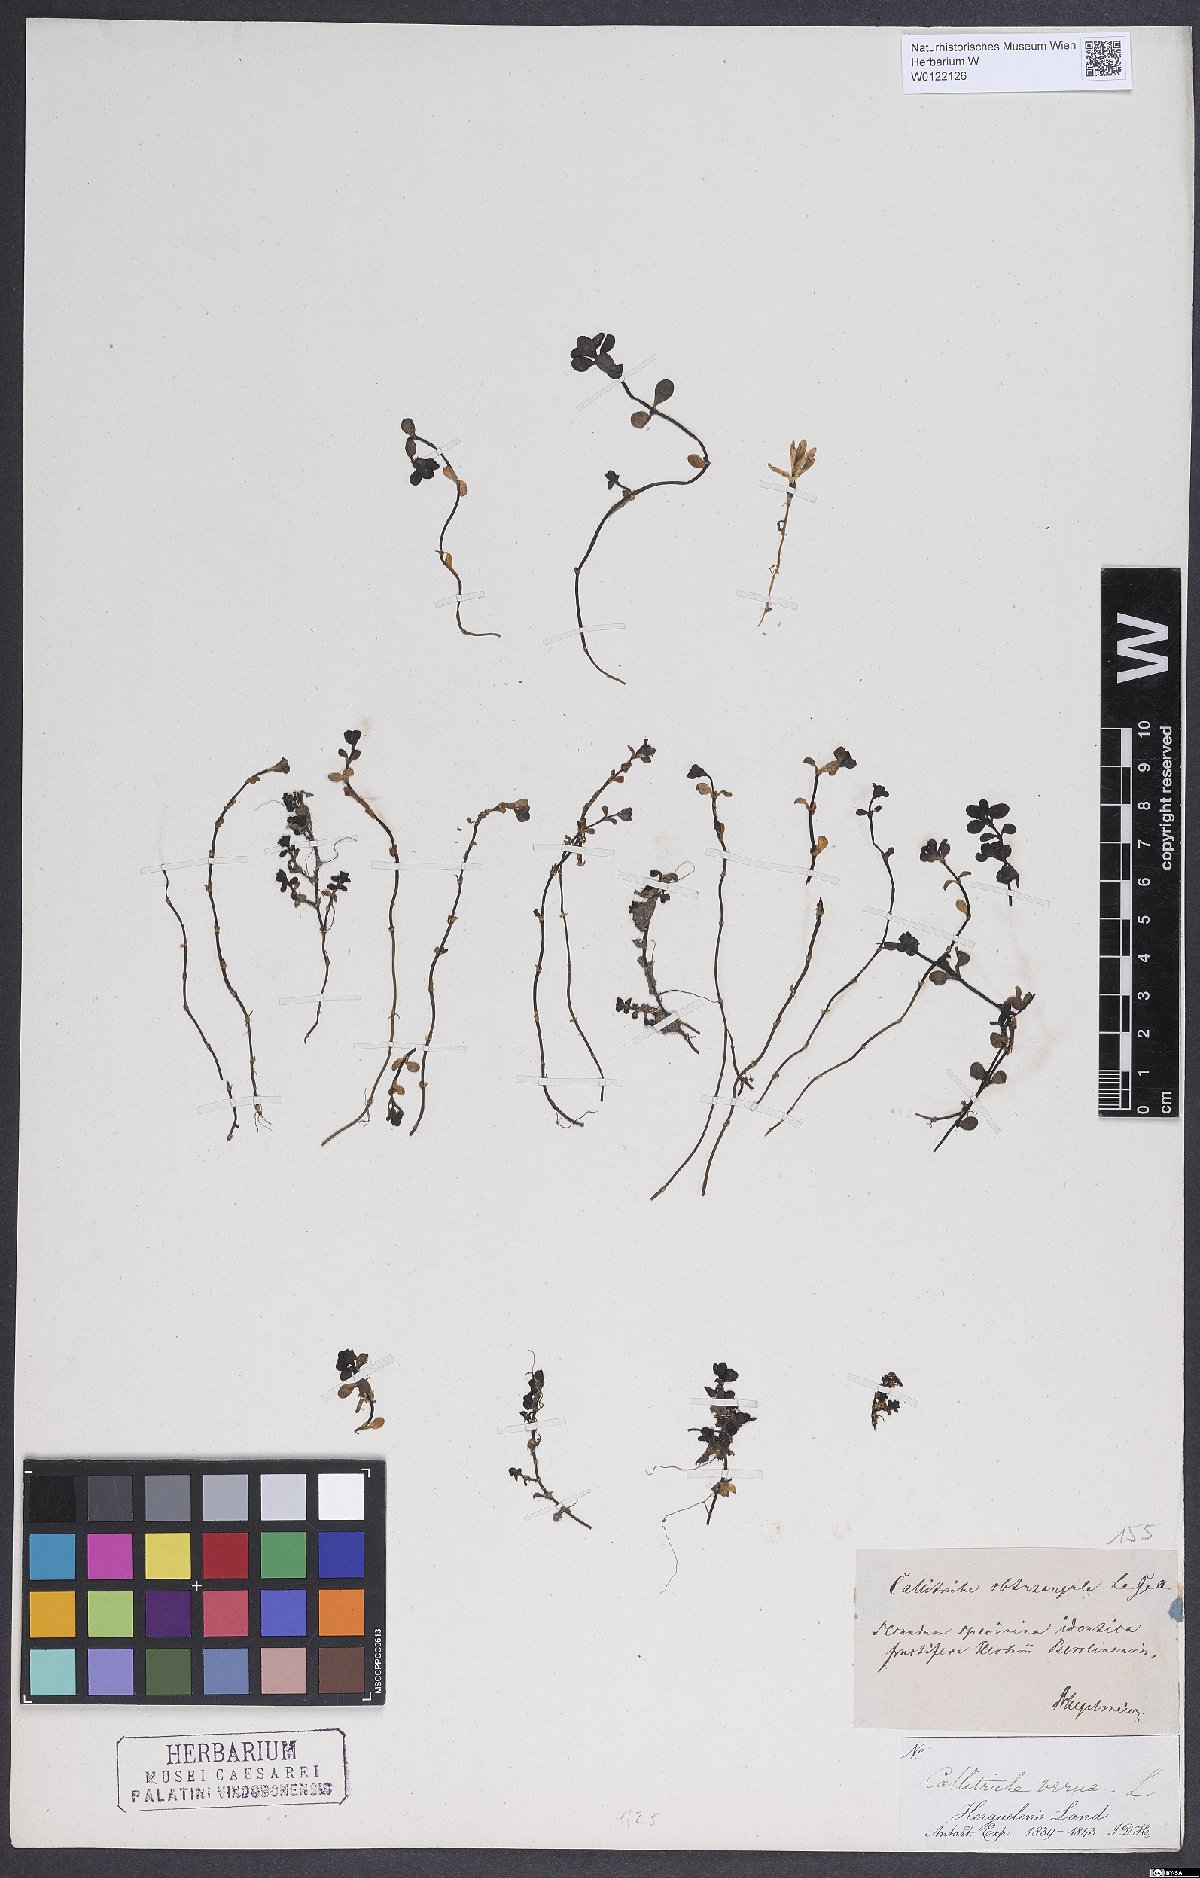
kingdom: Plantae
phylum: Tracheophyta
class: Magnoliopsida
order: Lamiales
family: Plantaginaceae
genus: Callitriche
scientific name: Callitriche antarctica
